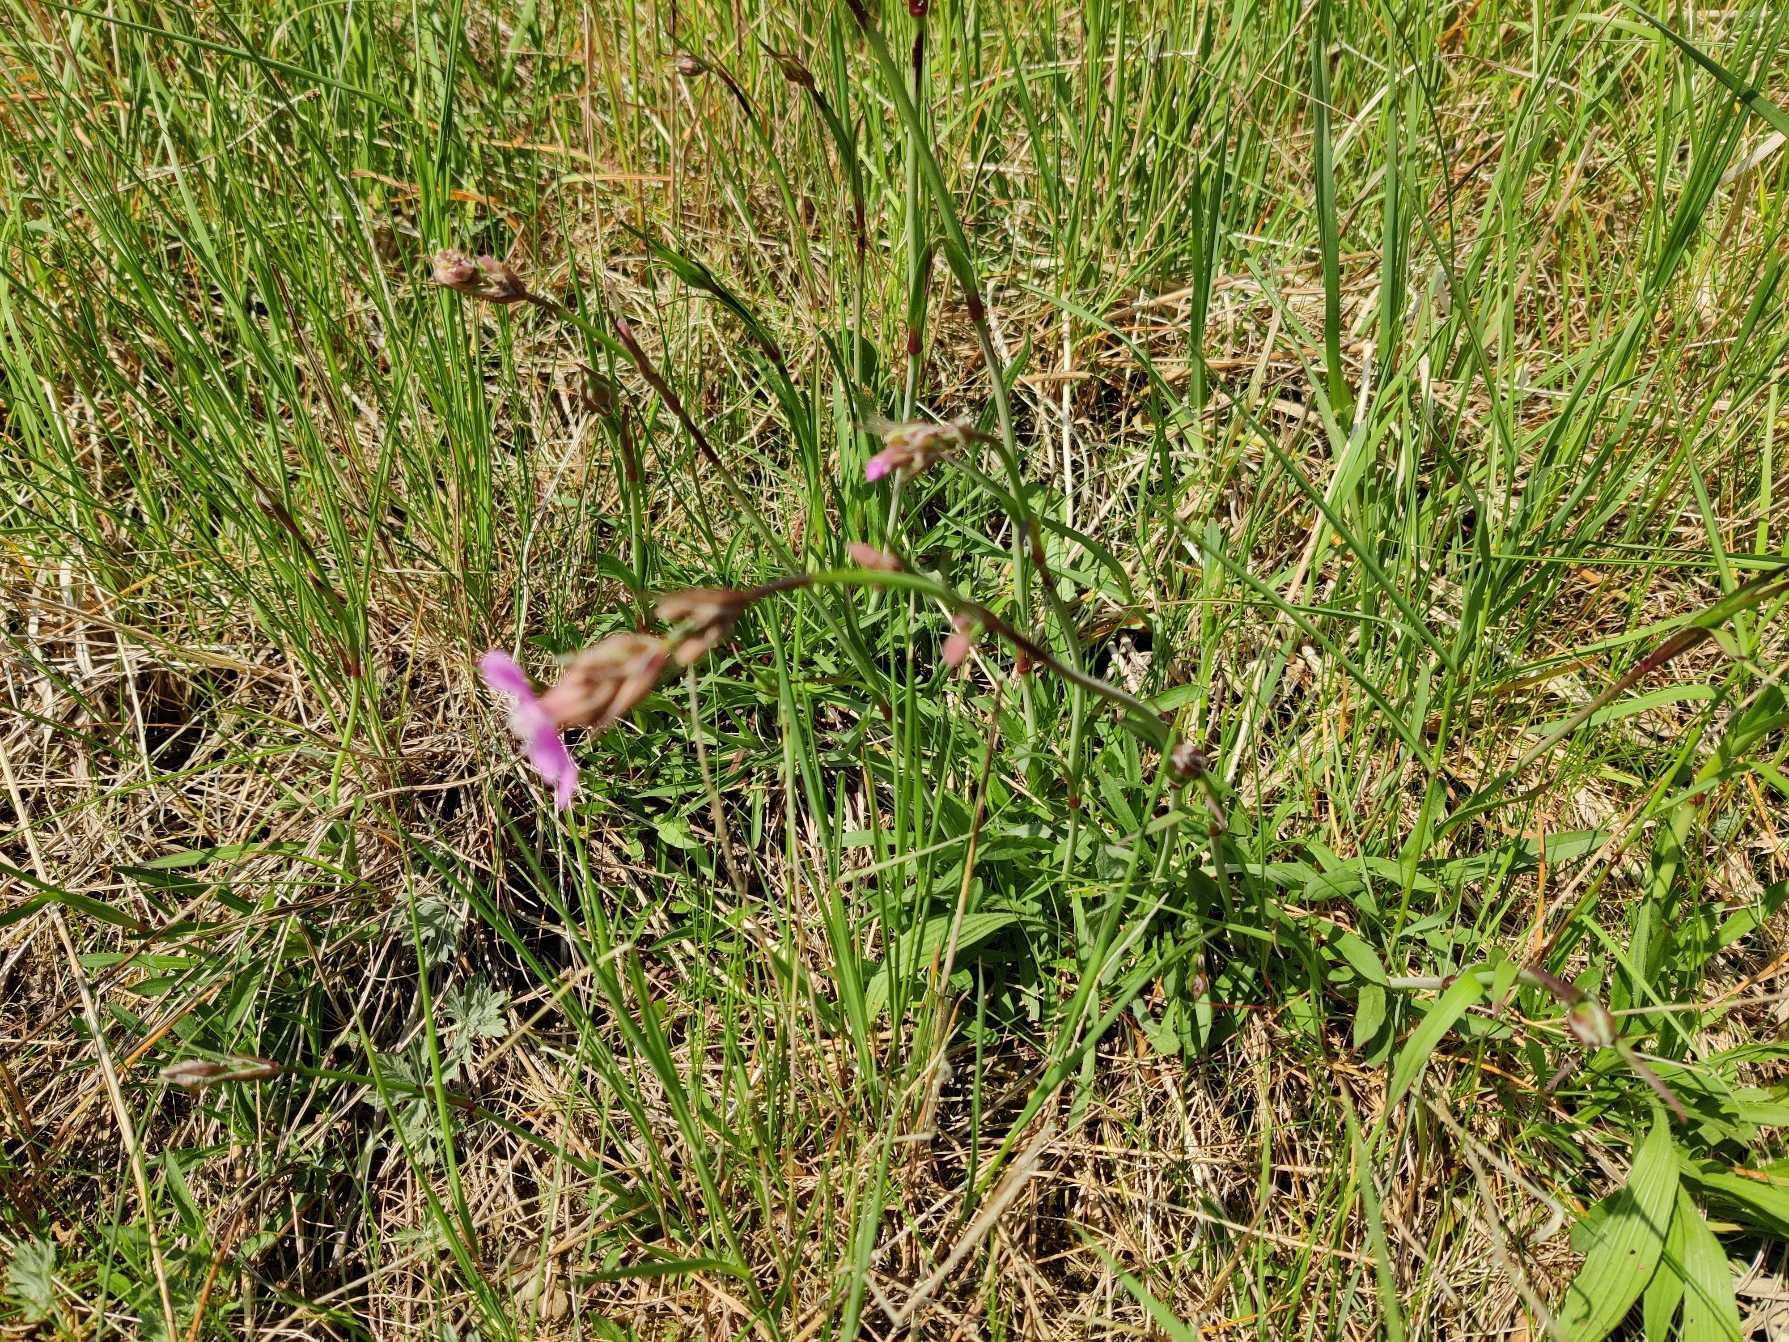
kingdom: Plantae
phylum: Tracheophyta
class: Magnoliopsida
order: Caryophyllales
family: Caryophyllaceae
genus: Viscaria
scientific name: Viscaria vulgaris
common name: Tjærenellike
